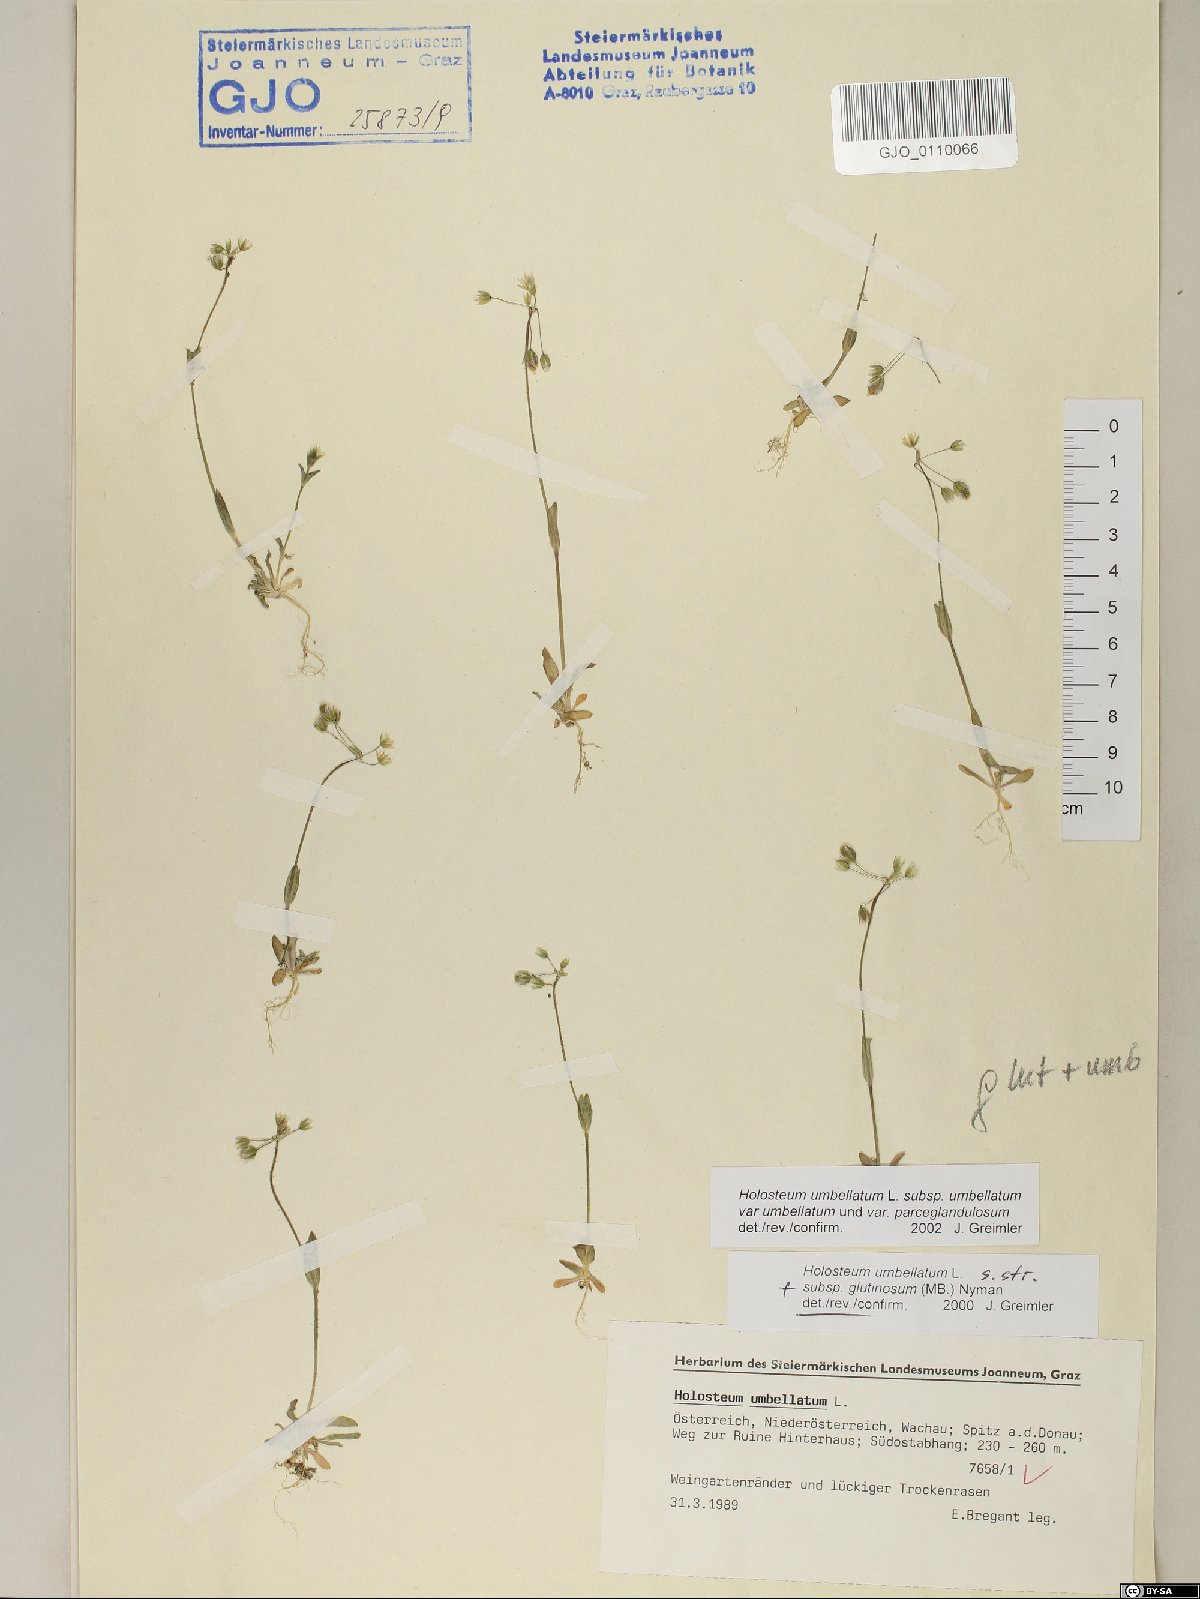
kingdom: Plantae
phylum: Tracheophyta
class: Magnoliopsida
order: Caryophyllales
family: Caryophyllaceae
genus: Holosteum
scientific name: Holosteum umbellatum
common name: Jagged chickweed
